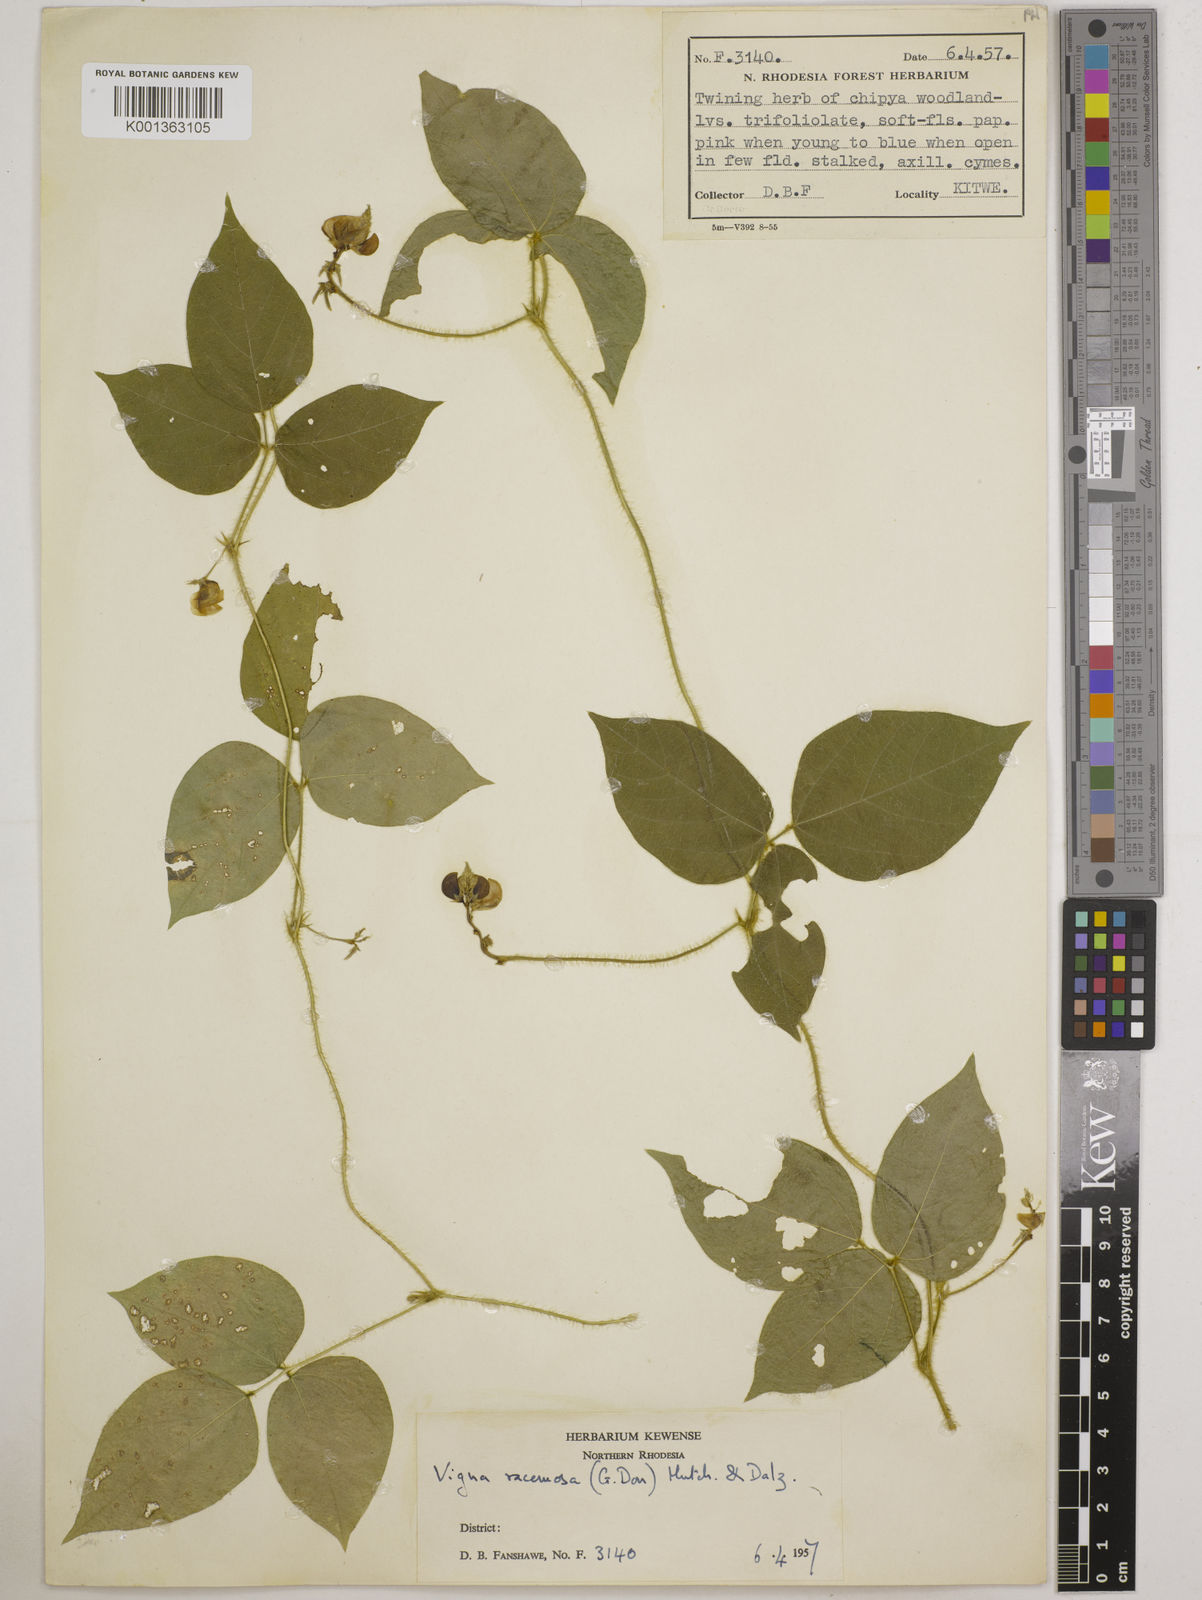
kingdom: Plantae
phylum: Tracheophyta
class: Magnoliopsida
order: Fabales
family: Fabaceae
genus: Vigna
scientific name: Vigna racemosa
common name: Beans not eaten
